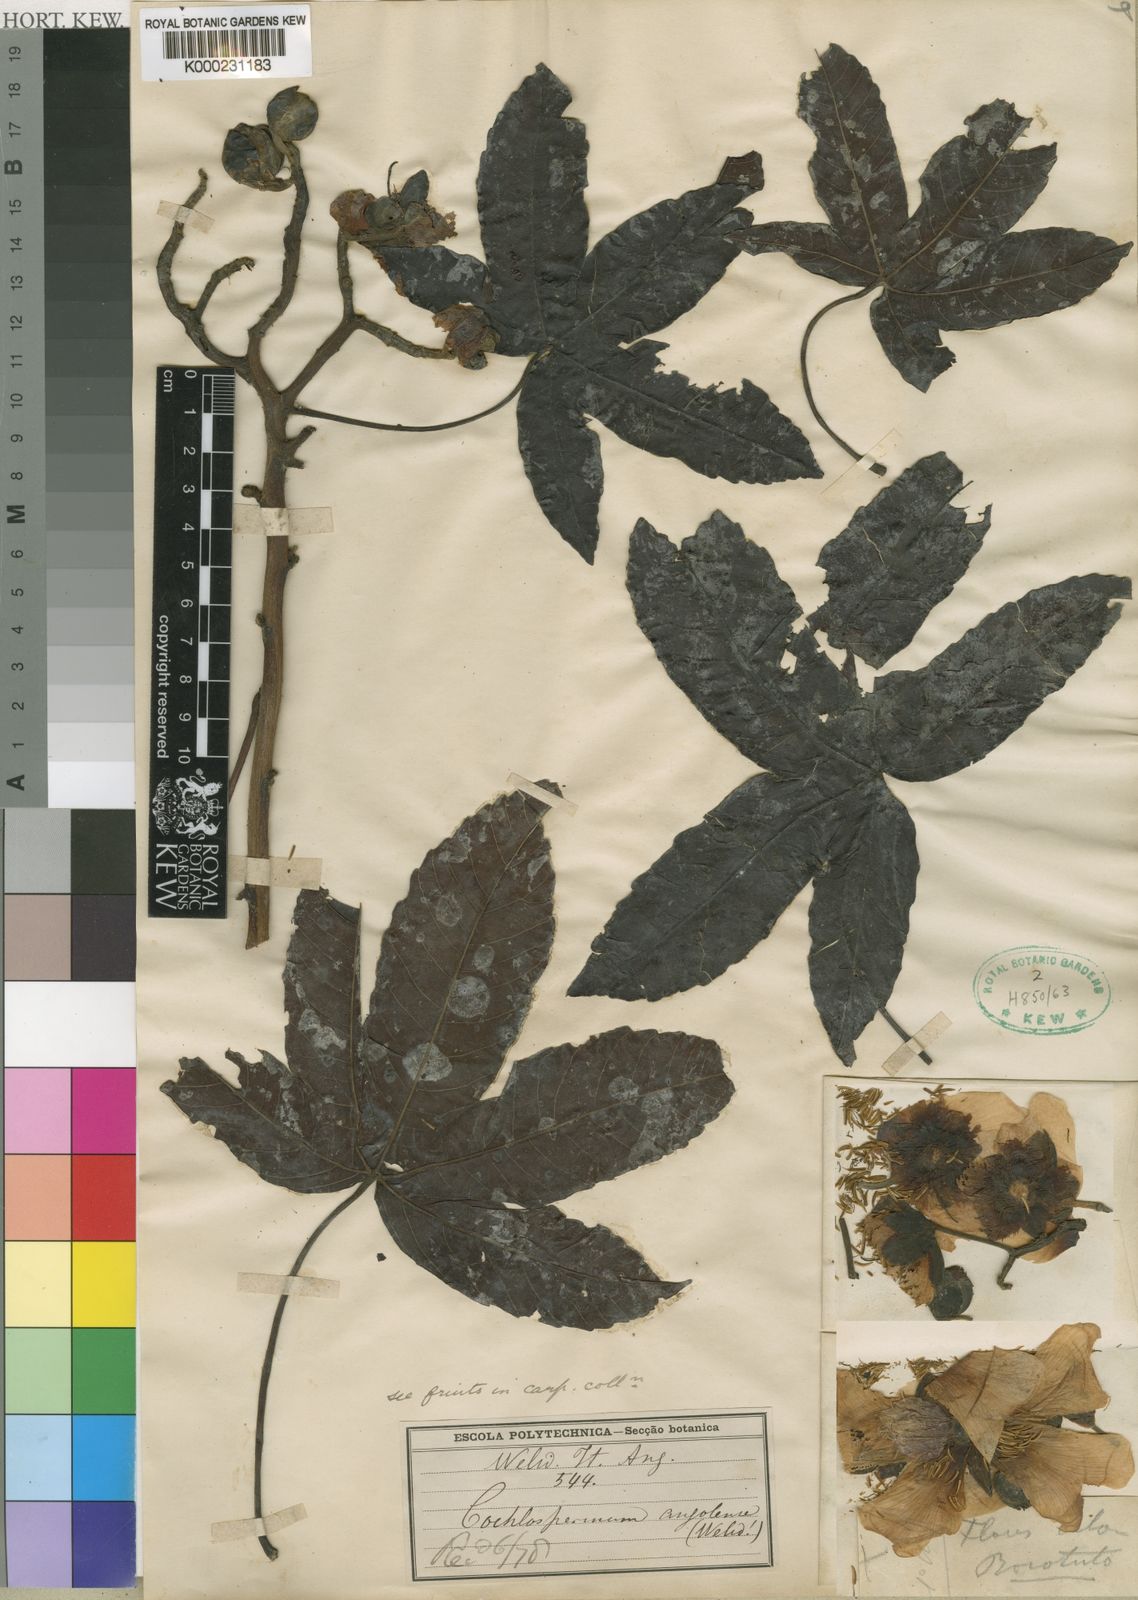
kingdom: Plantae
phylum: Tracheophyta
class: Magnoliopsida
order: Malvales
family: Cochlospermaceae
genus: Cochlospermum
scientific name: Cochlospermum
